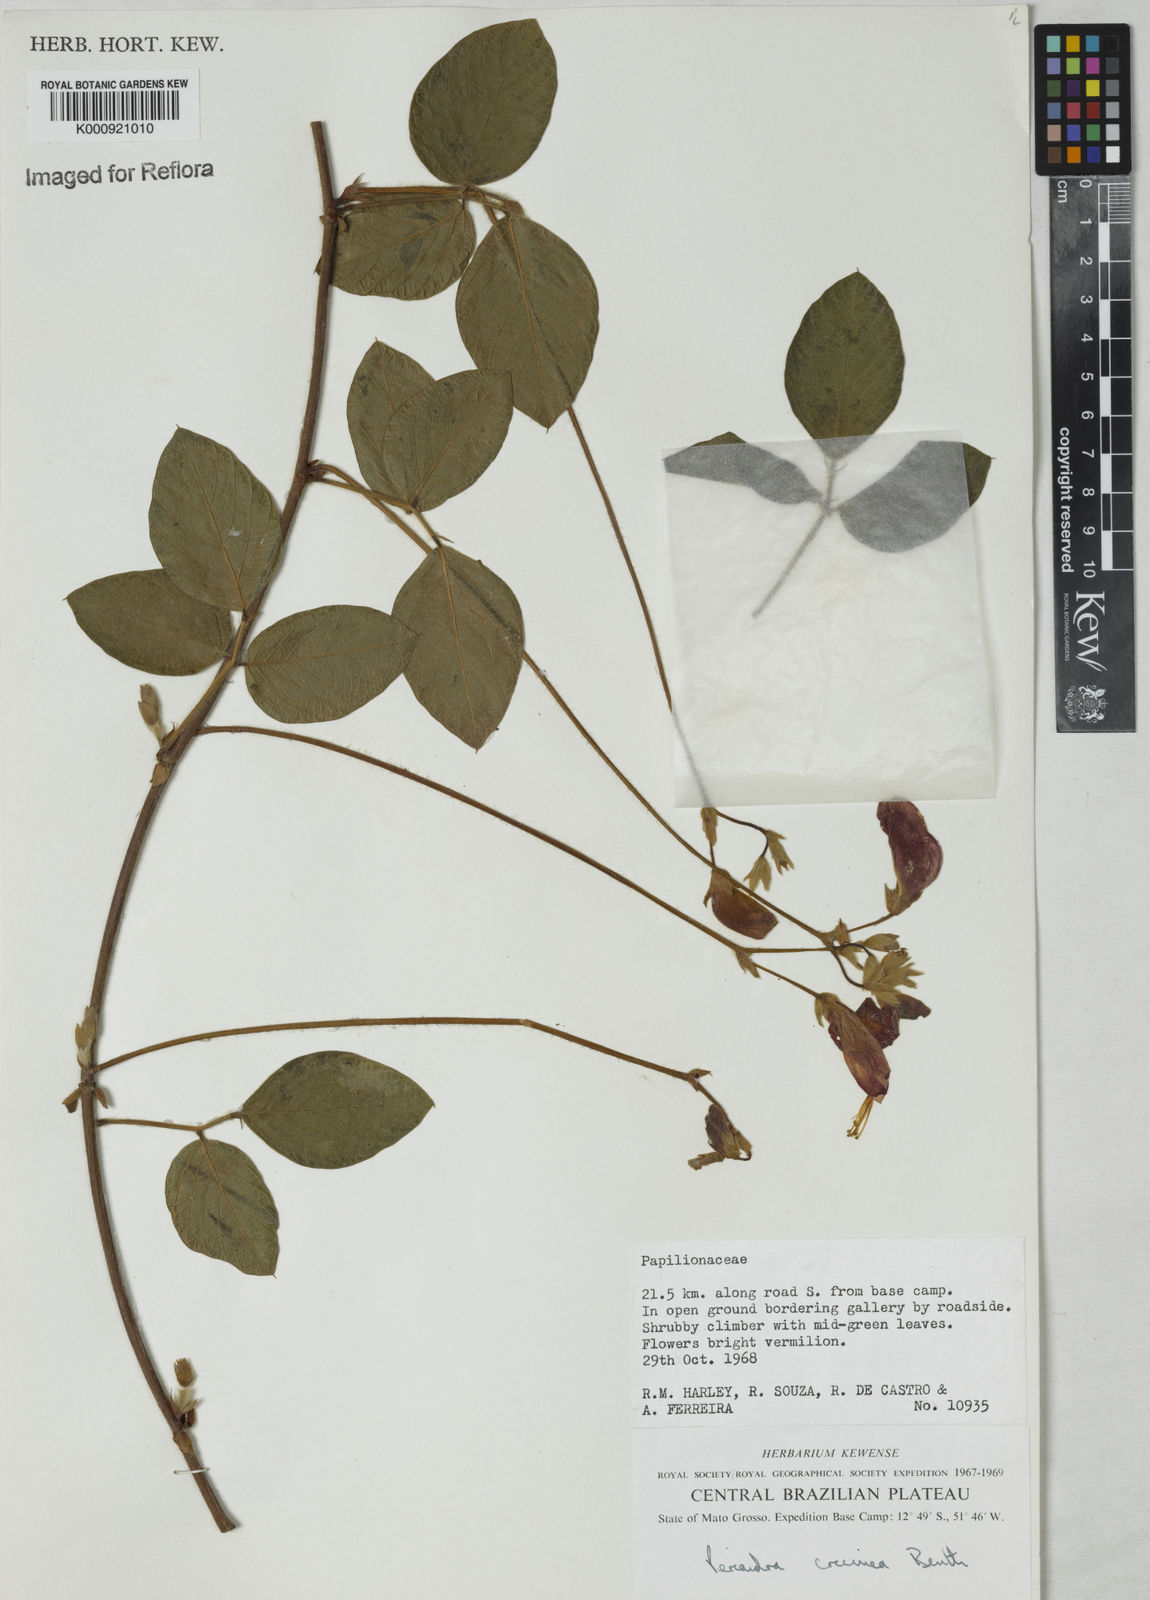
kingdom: Plantae
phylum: Tracheophyta
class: Magnoliopsida
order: Fabales
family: Fabaceae
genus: Periandra
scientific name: Periandra coccinea
